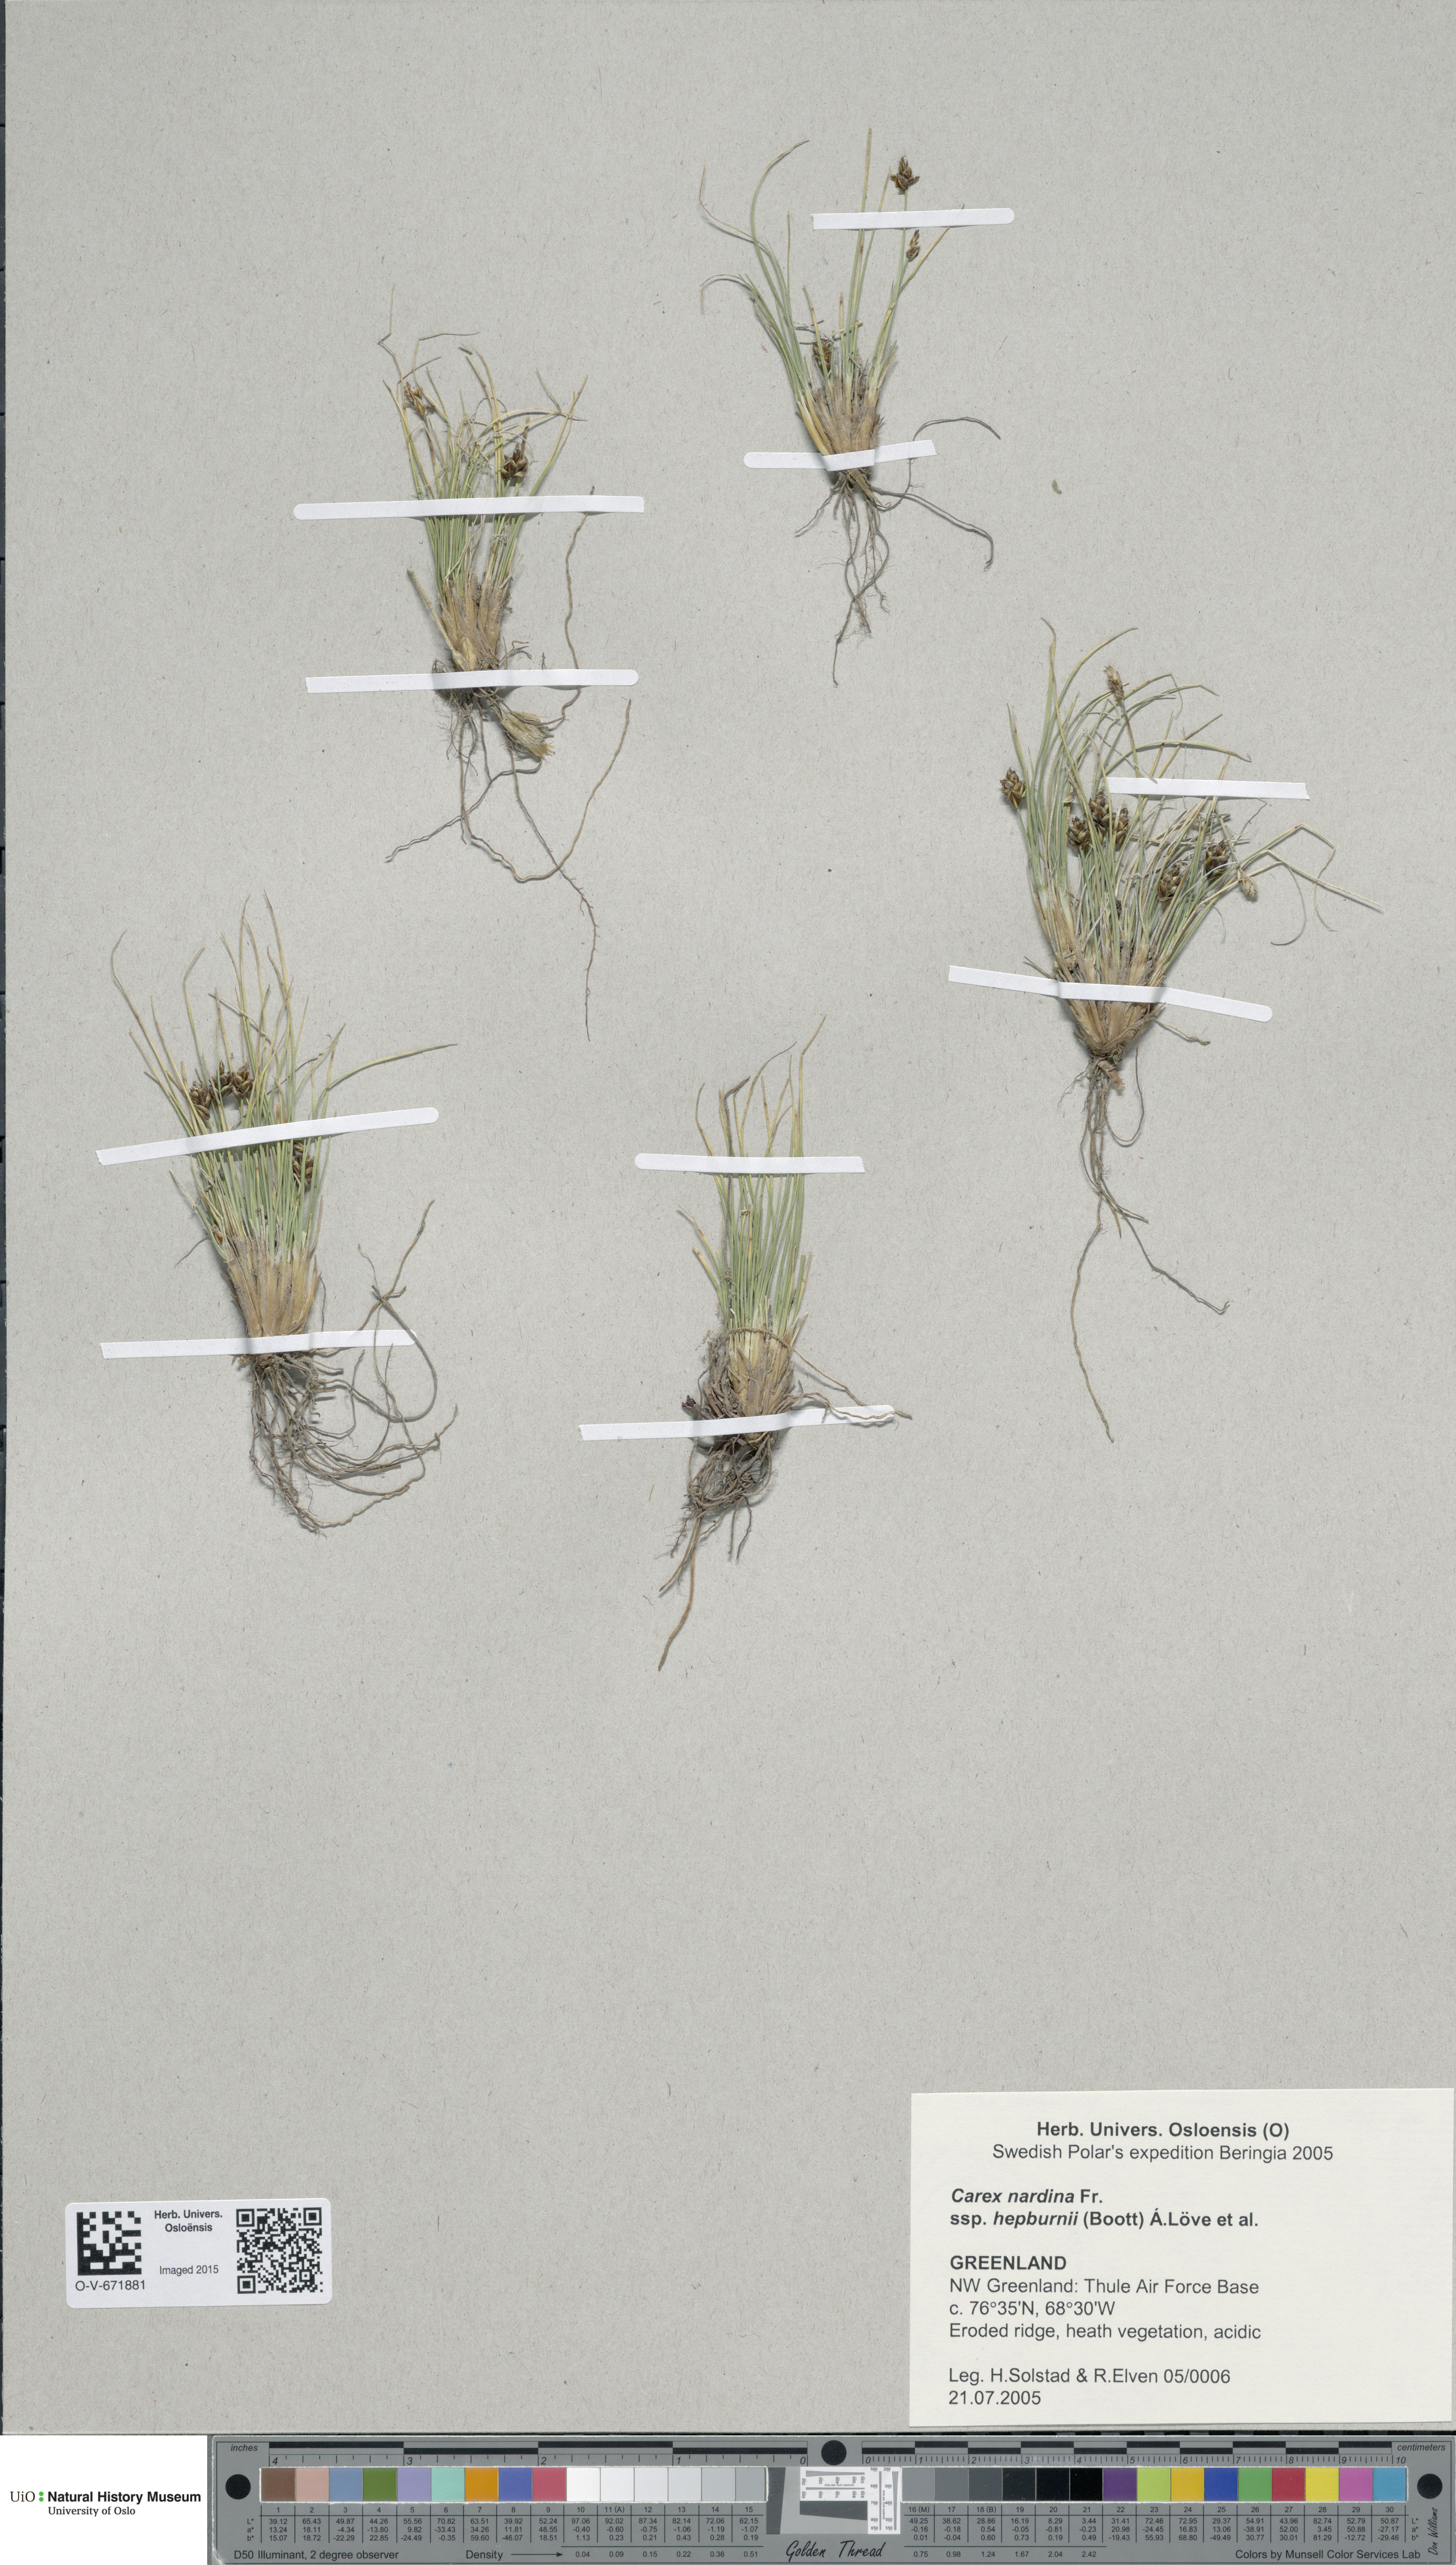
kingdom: Plantae
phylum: Tracheophyta
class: Liliopsida
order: Poales
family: Cyperaceae
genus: Carex
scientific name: Carex nardina
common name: Nard sedge
